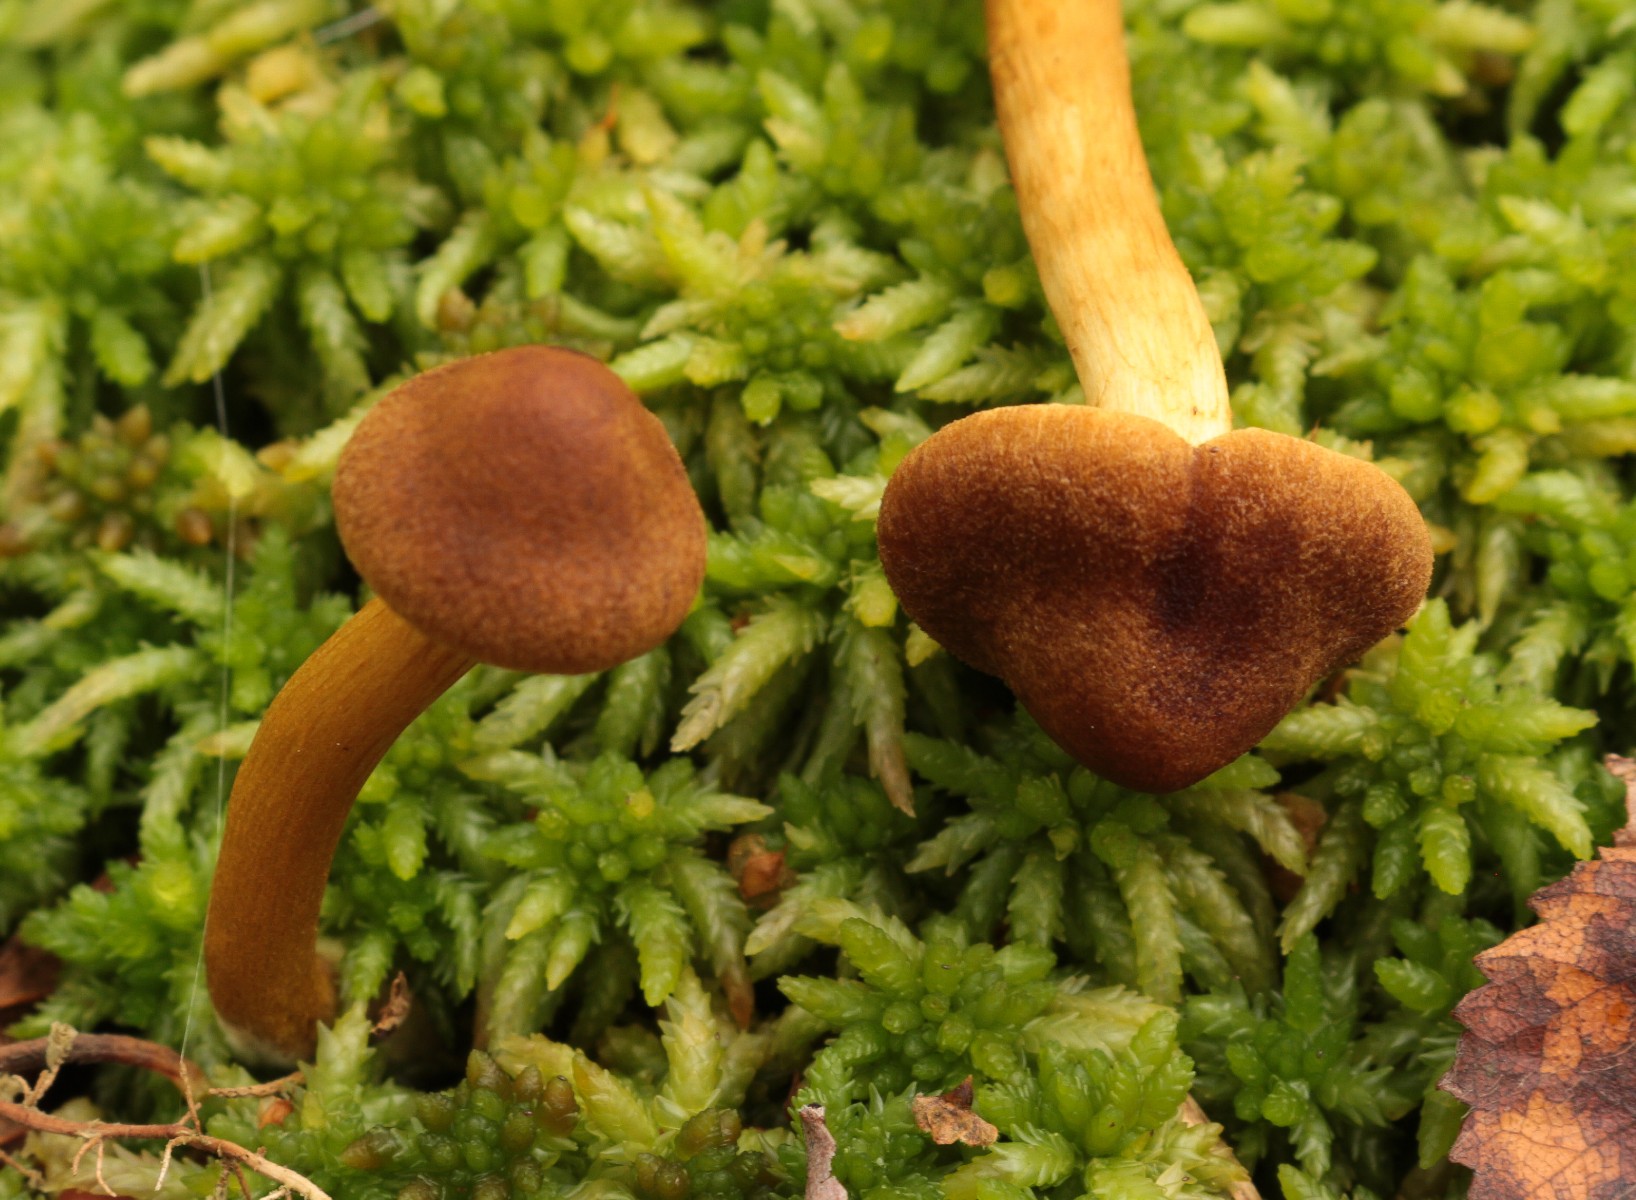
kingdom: Fungi
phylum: Basidiomycota
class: Agaricomycetes
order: Agaricales
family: Cortinariaceae
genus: Cortinarius
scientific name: Cortinarius
